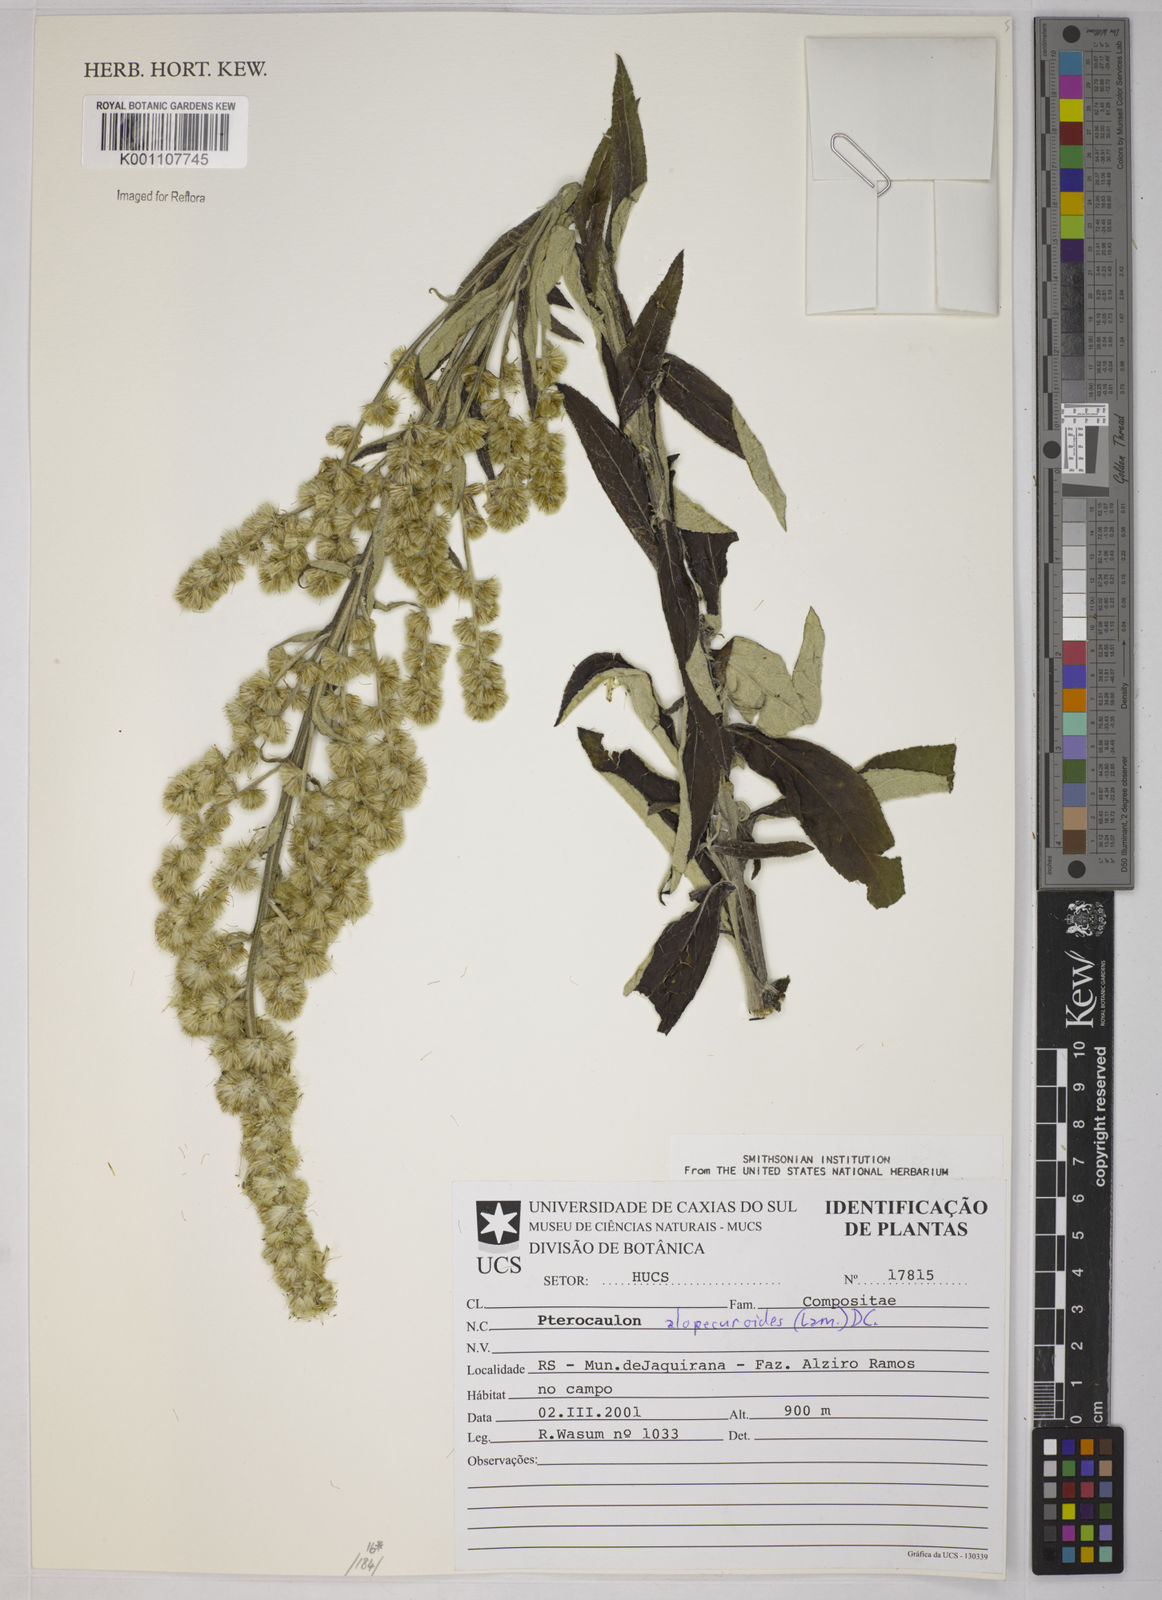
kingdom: Plantae
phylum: Tracheophyta
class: Magnoliopsida
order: Asterales
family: Asteraceae
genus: Pterocaulon
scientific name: Pterocaulon alopecuroides
